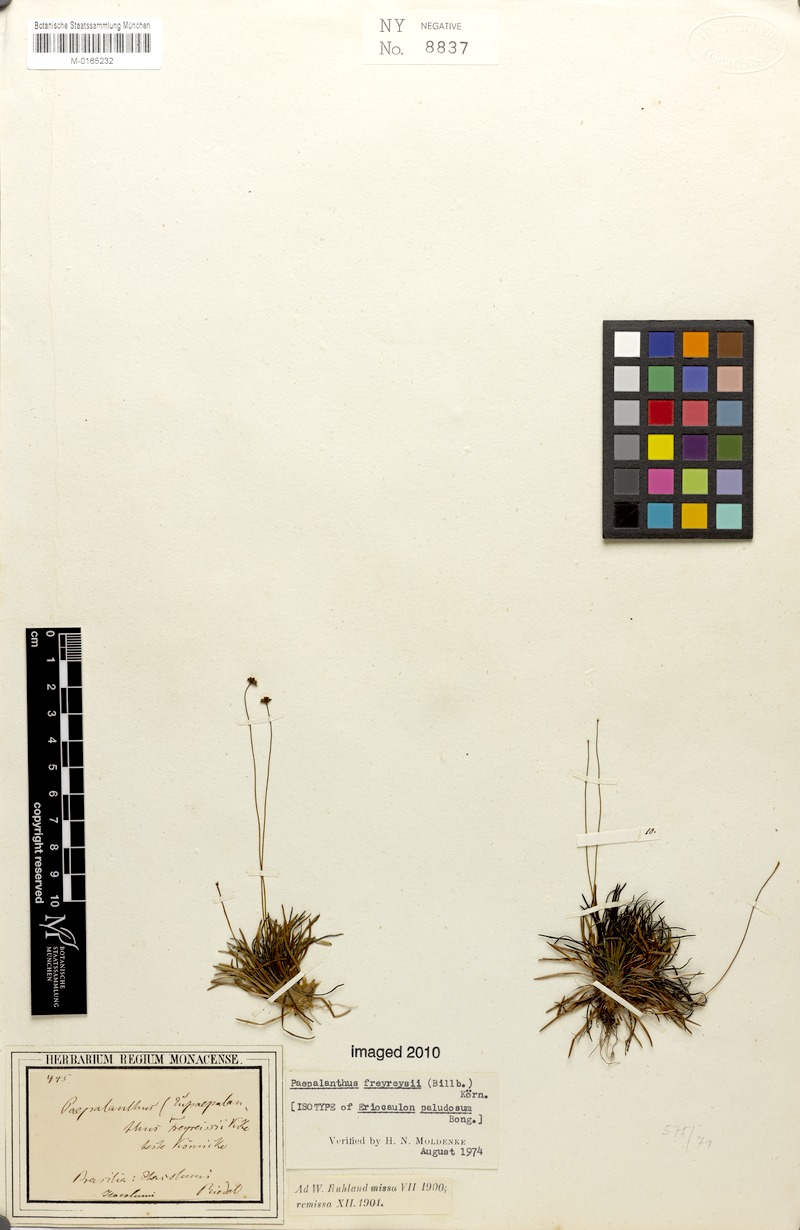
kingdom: Plantae
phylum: Tracheophyta
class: Liliopsida
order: Poales
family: Eriocaulaceae
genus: Paepalanthus
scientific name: Paepalanthus freyreissii
